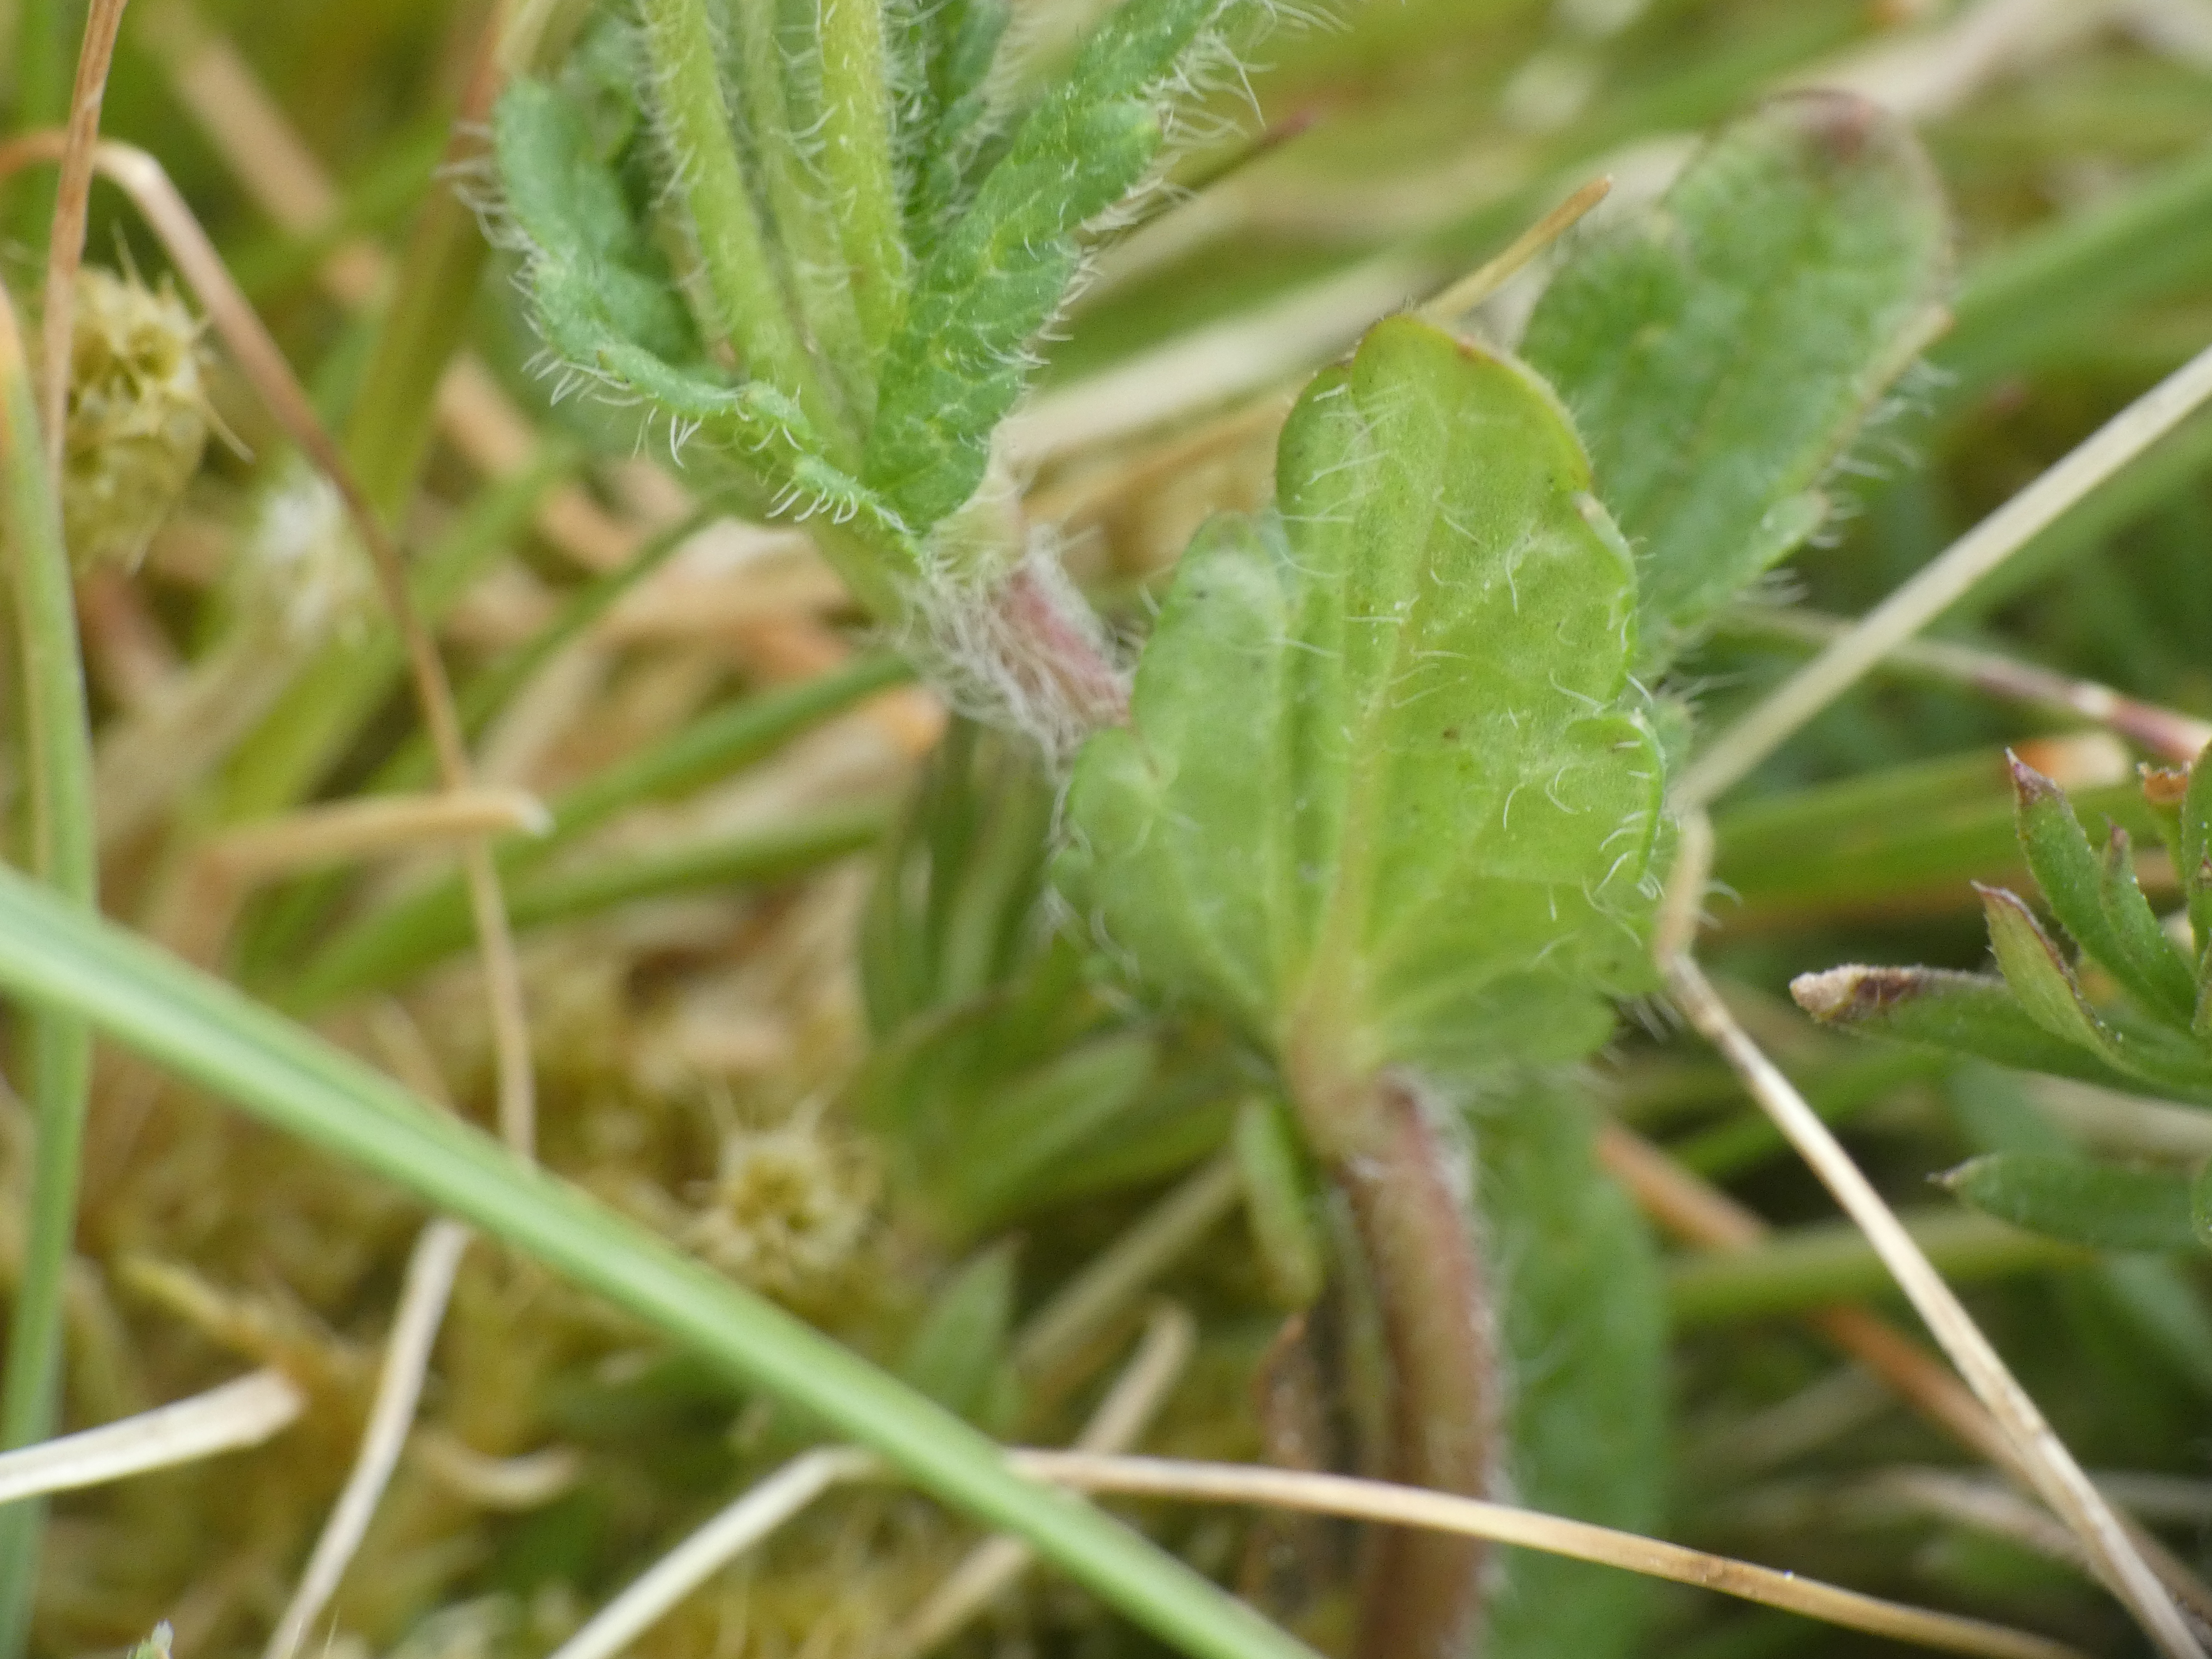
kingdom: Plantae
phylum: Tracheophyta
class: Magnoliopsida
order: Lamiales
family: Plantaginaceae
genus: Veronica
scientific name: Veronica chamaedrys
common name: Tveskægget ærenpris
